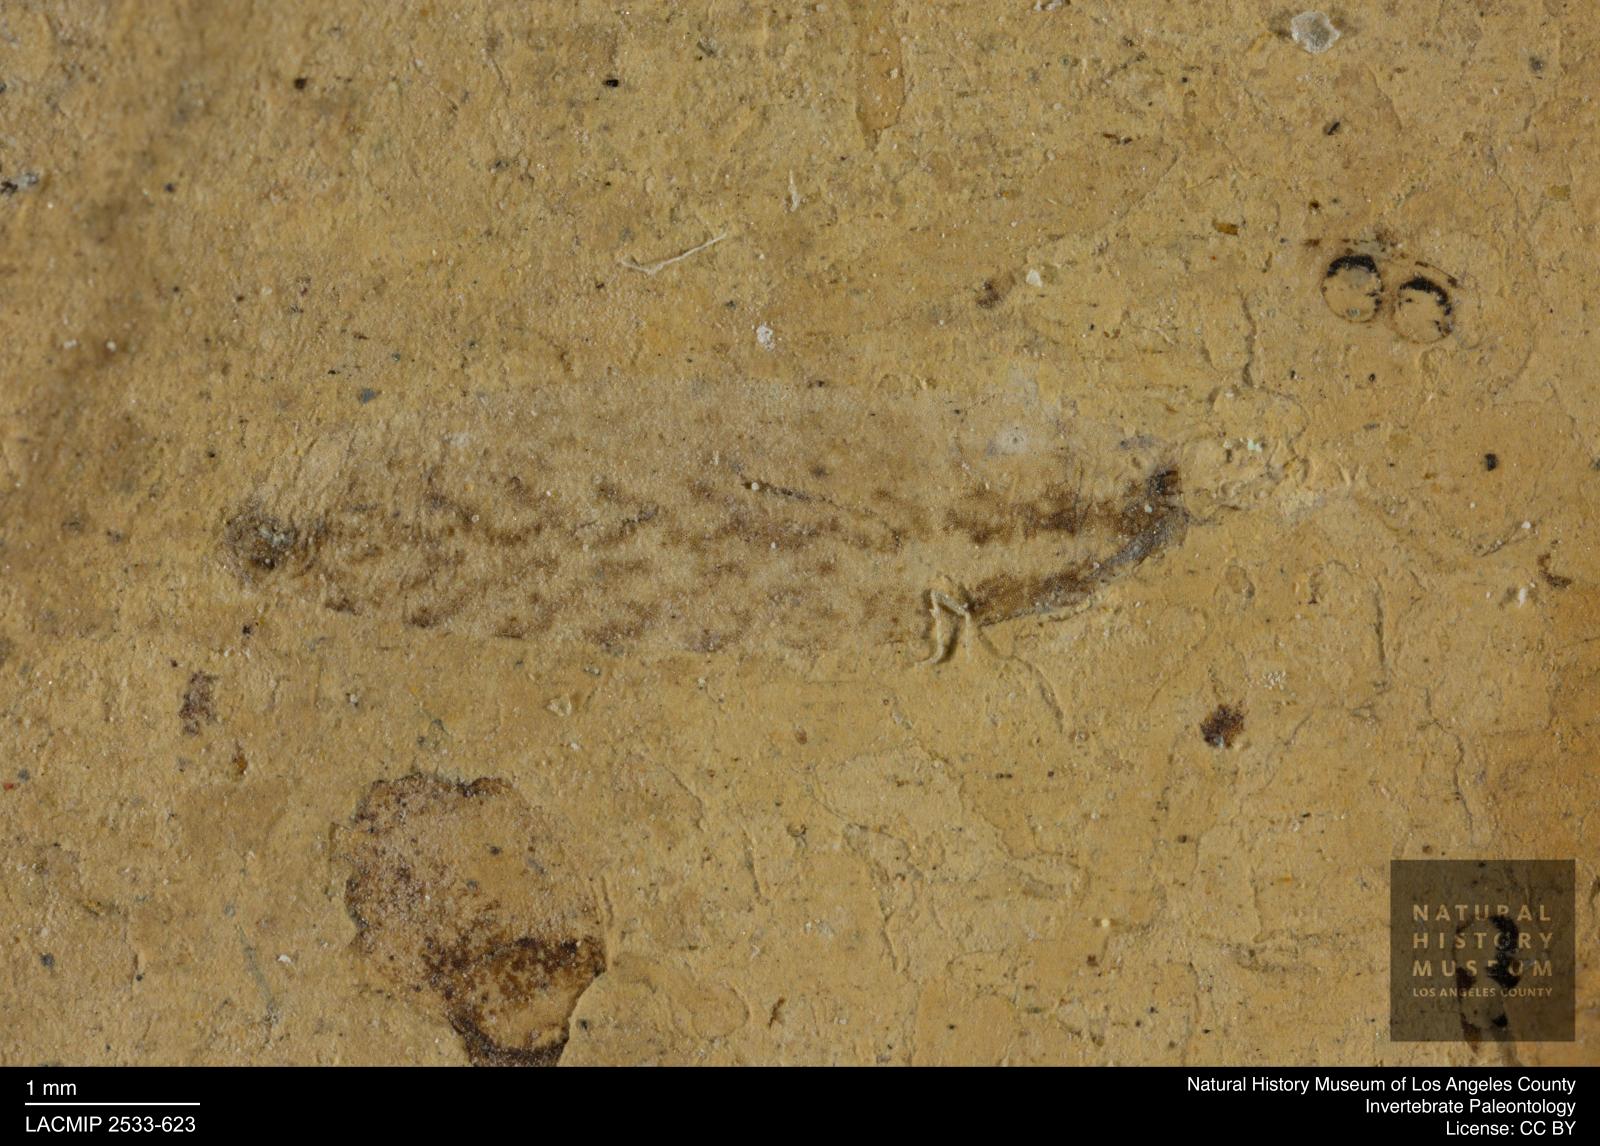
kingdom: Animalia
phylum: Arthropoda
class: Insecta
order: Diptera
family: Stratiomyidae
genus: Oxycera
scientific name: Oxycera
